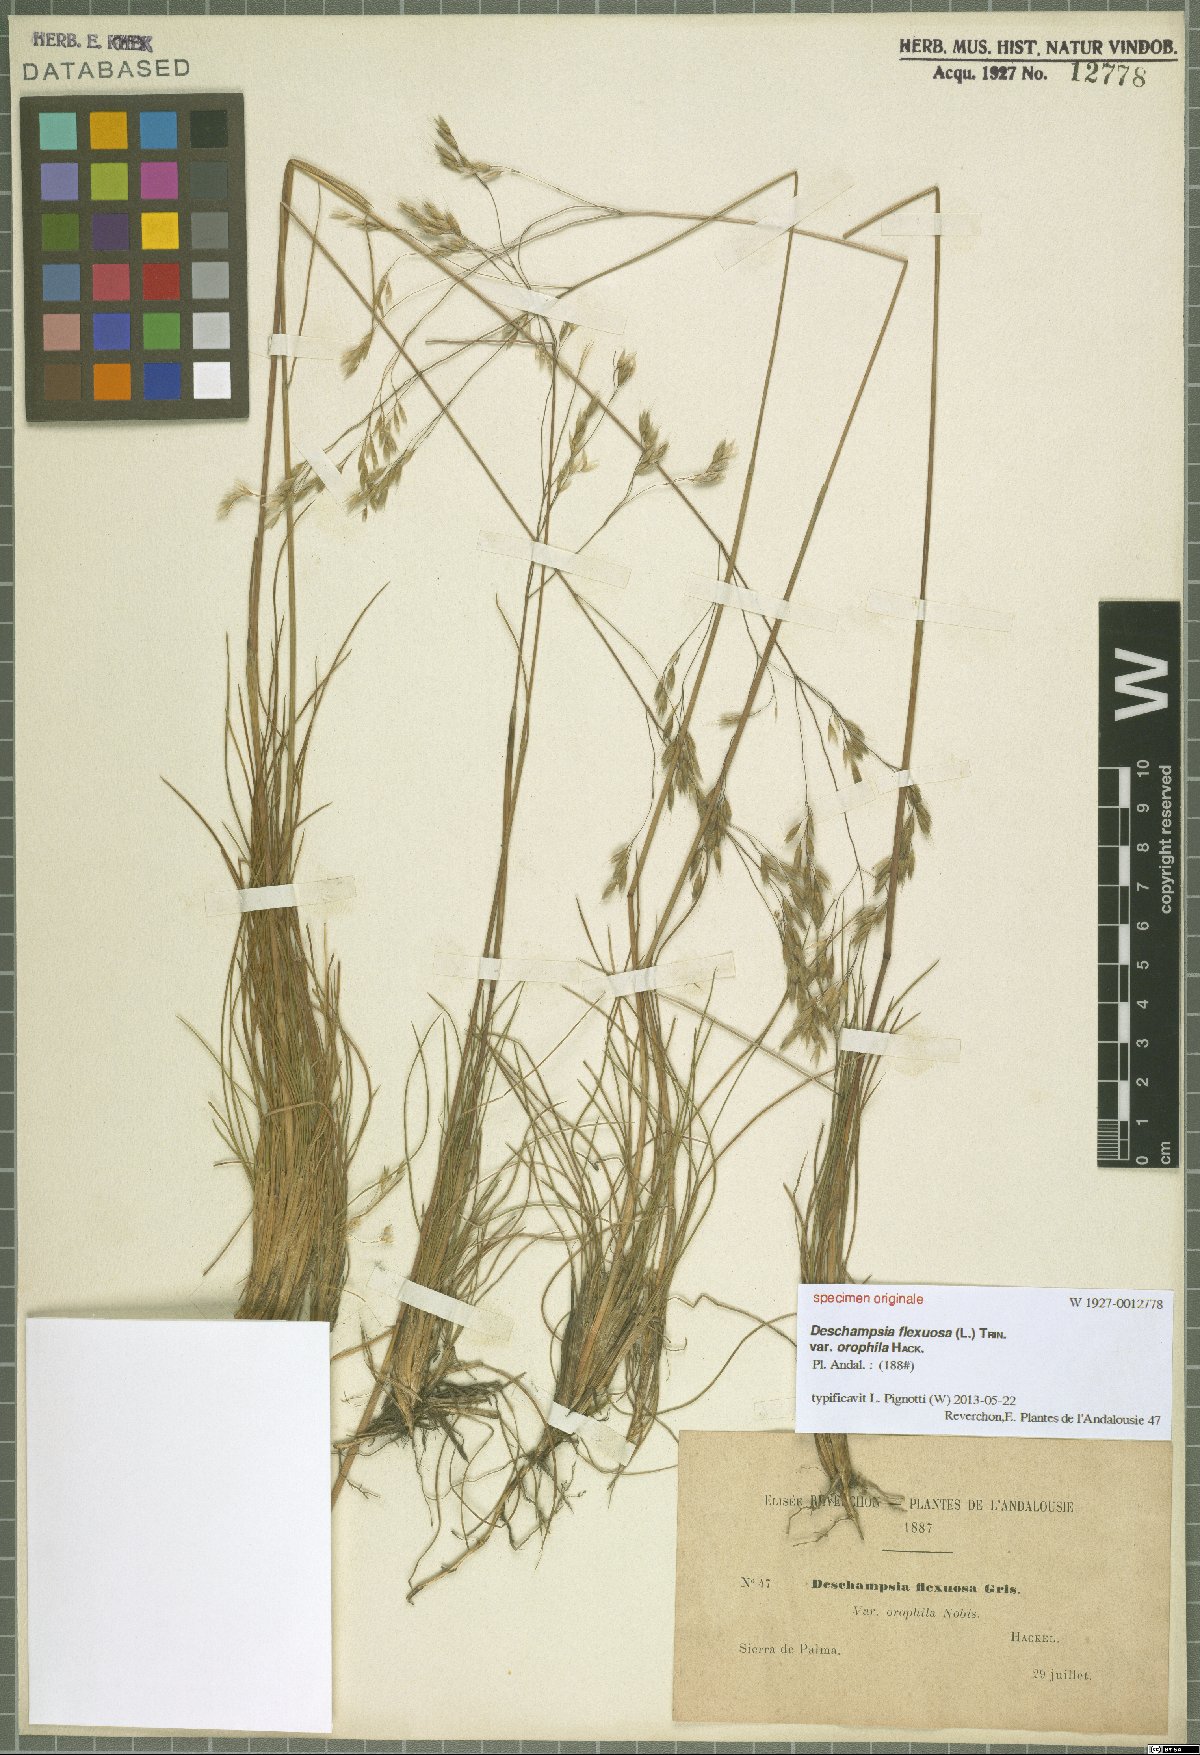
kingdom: Plantae
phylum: Tracheophyta
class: Liliopsida
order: Poales
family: Poaceae
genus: Avenella
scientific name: Avenella flexuosa
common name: Wavy hairgrass
